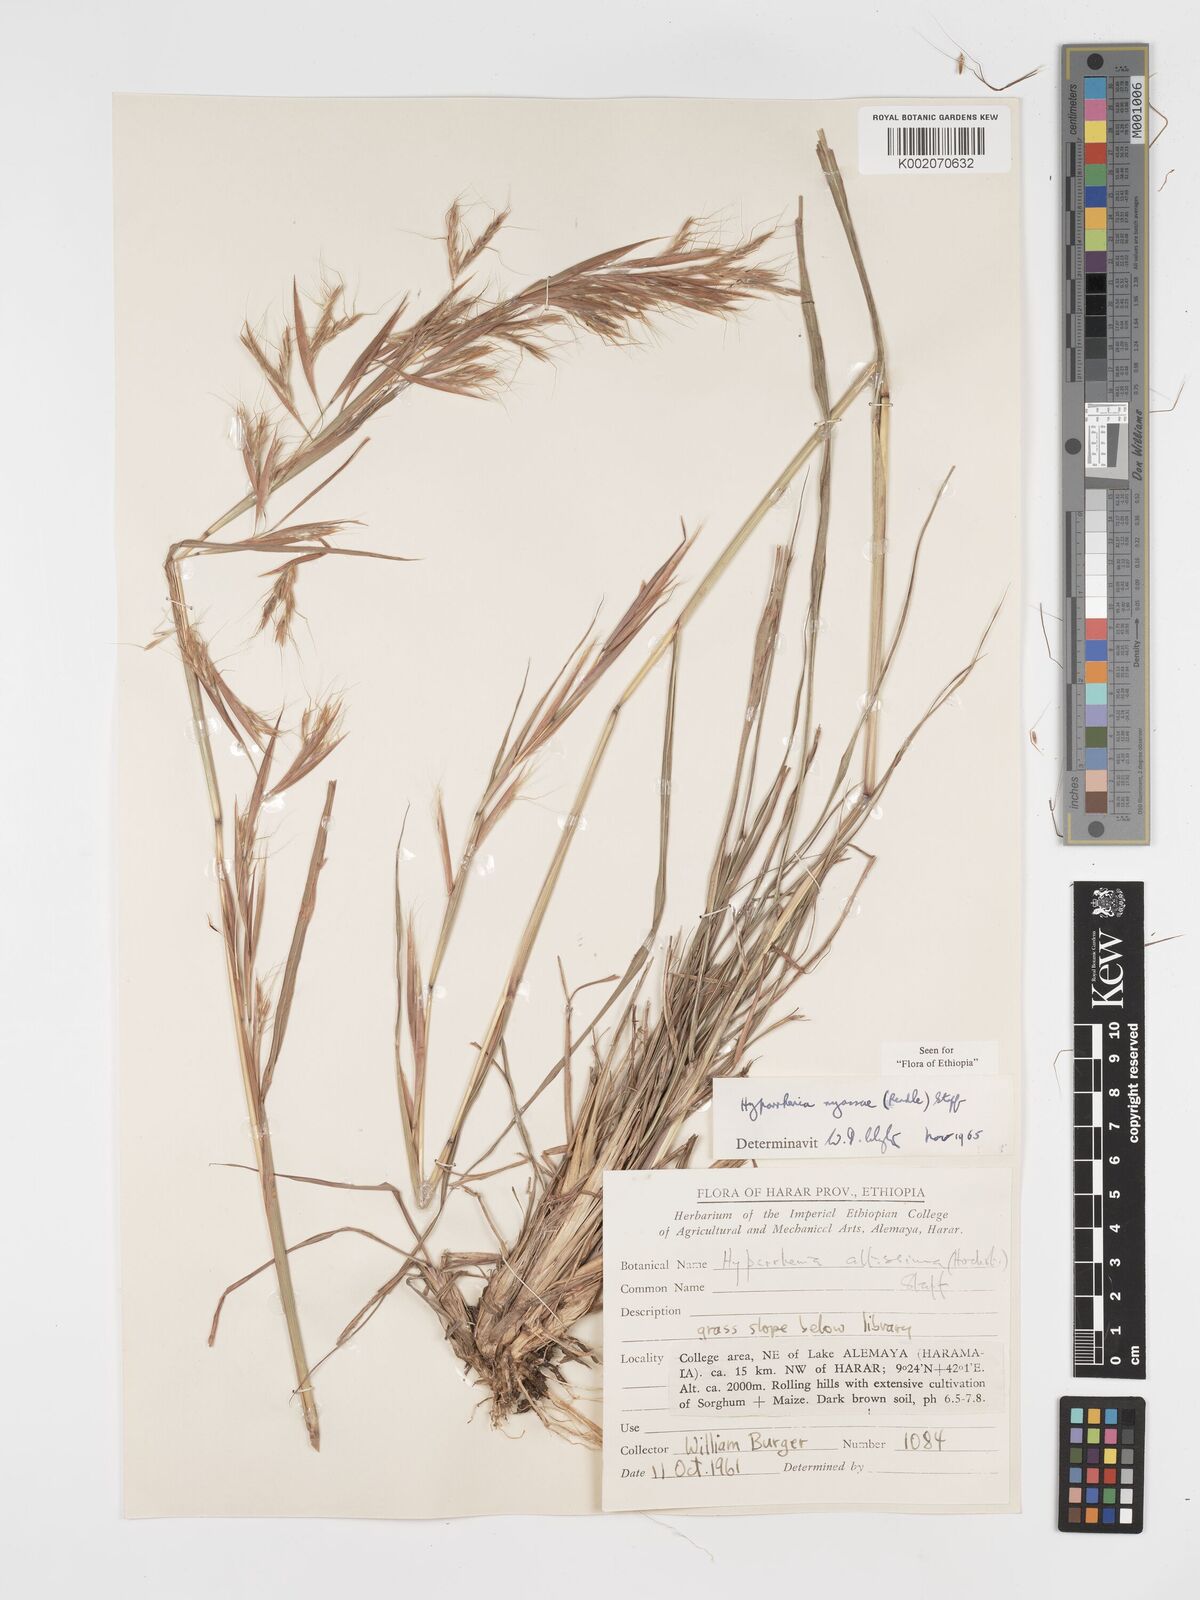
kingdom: Plantae
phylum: Tracheophyta
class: Liliopsida
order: Poales
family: Poaceae
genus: Hyparrhenia
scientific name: Hyparrhenia nyassae
